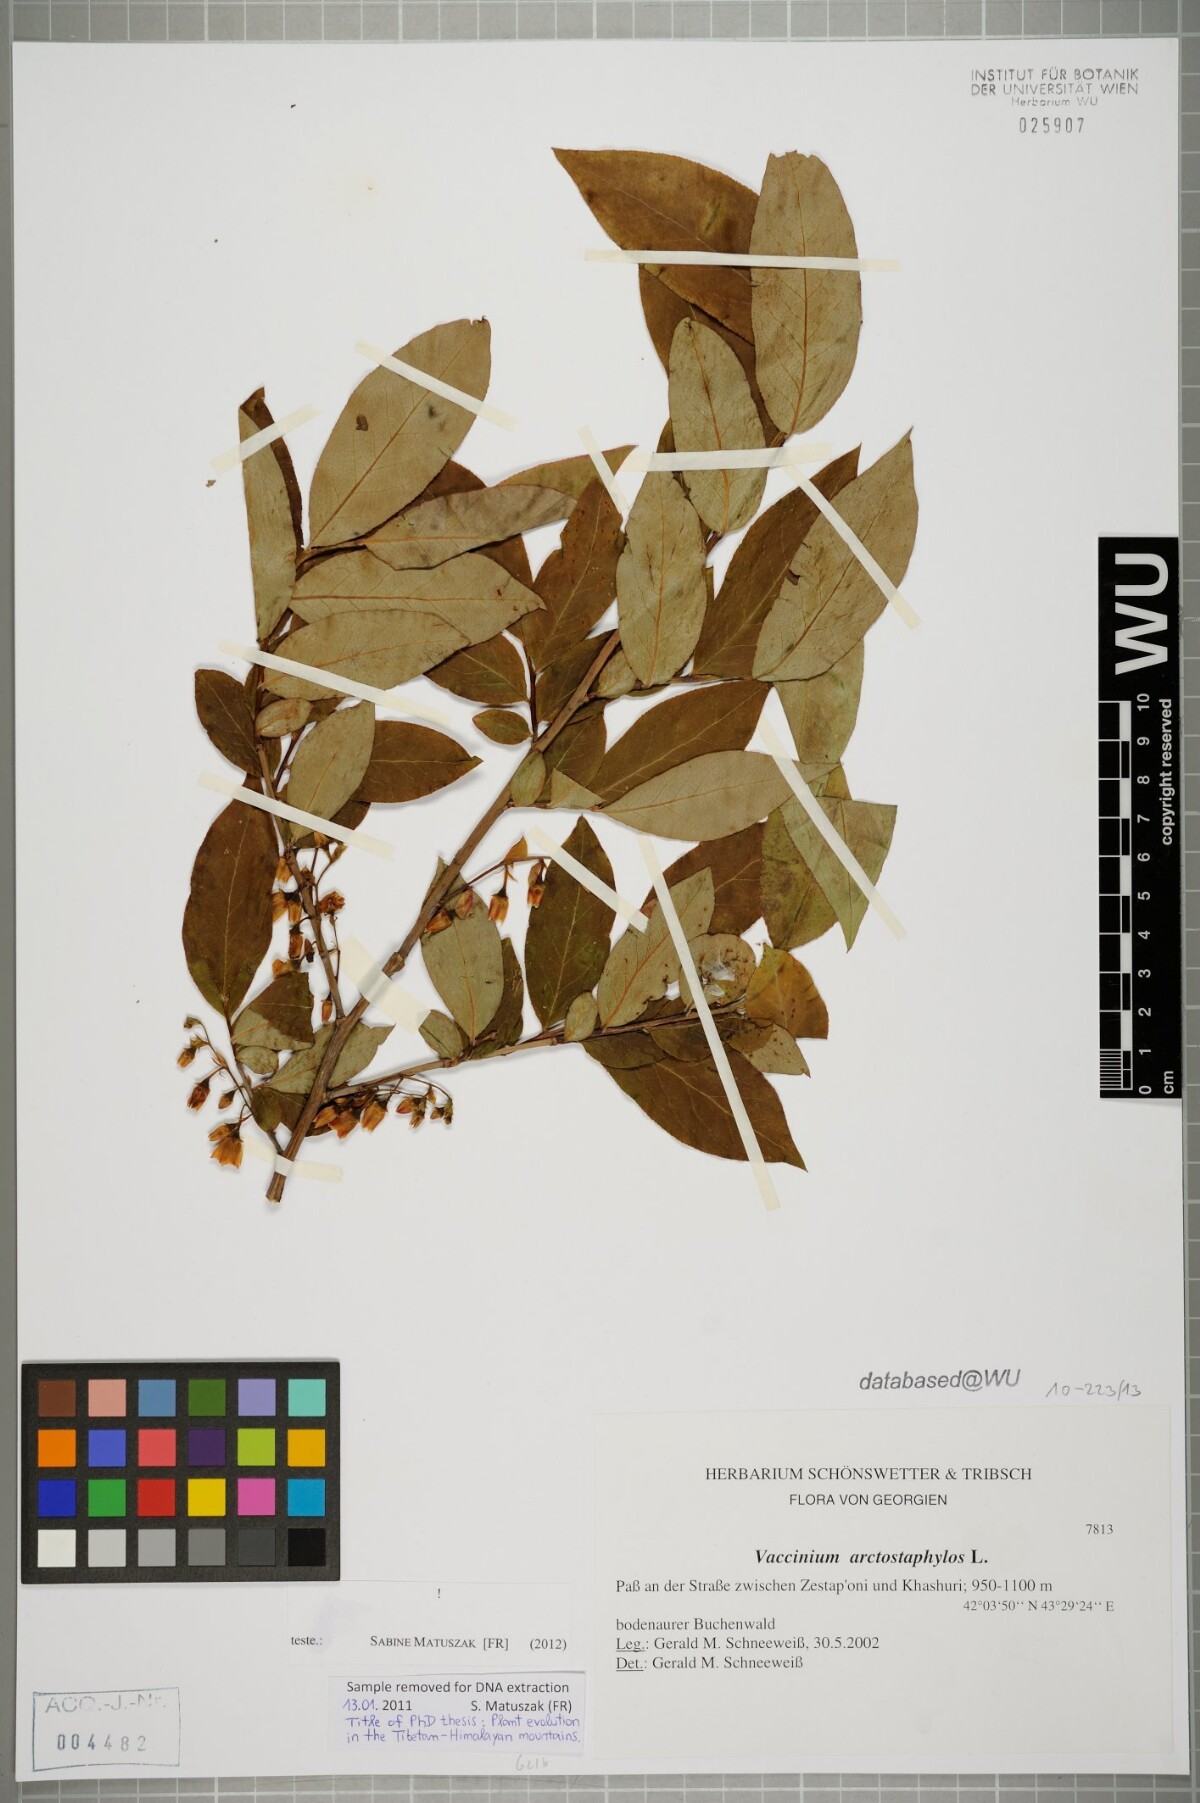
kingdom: Plantae
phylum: Tracheophyta
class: Magnoliopsida
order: Ericales
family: Ericaceae
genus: Vaccinium
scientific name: Vaccinium arctostaphylos
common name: Caucasian whortleberry
